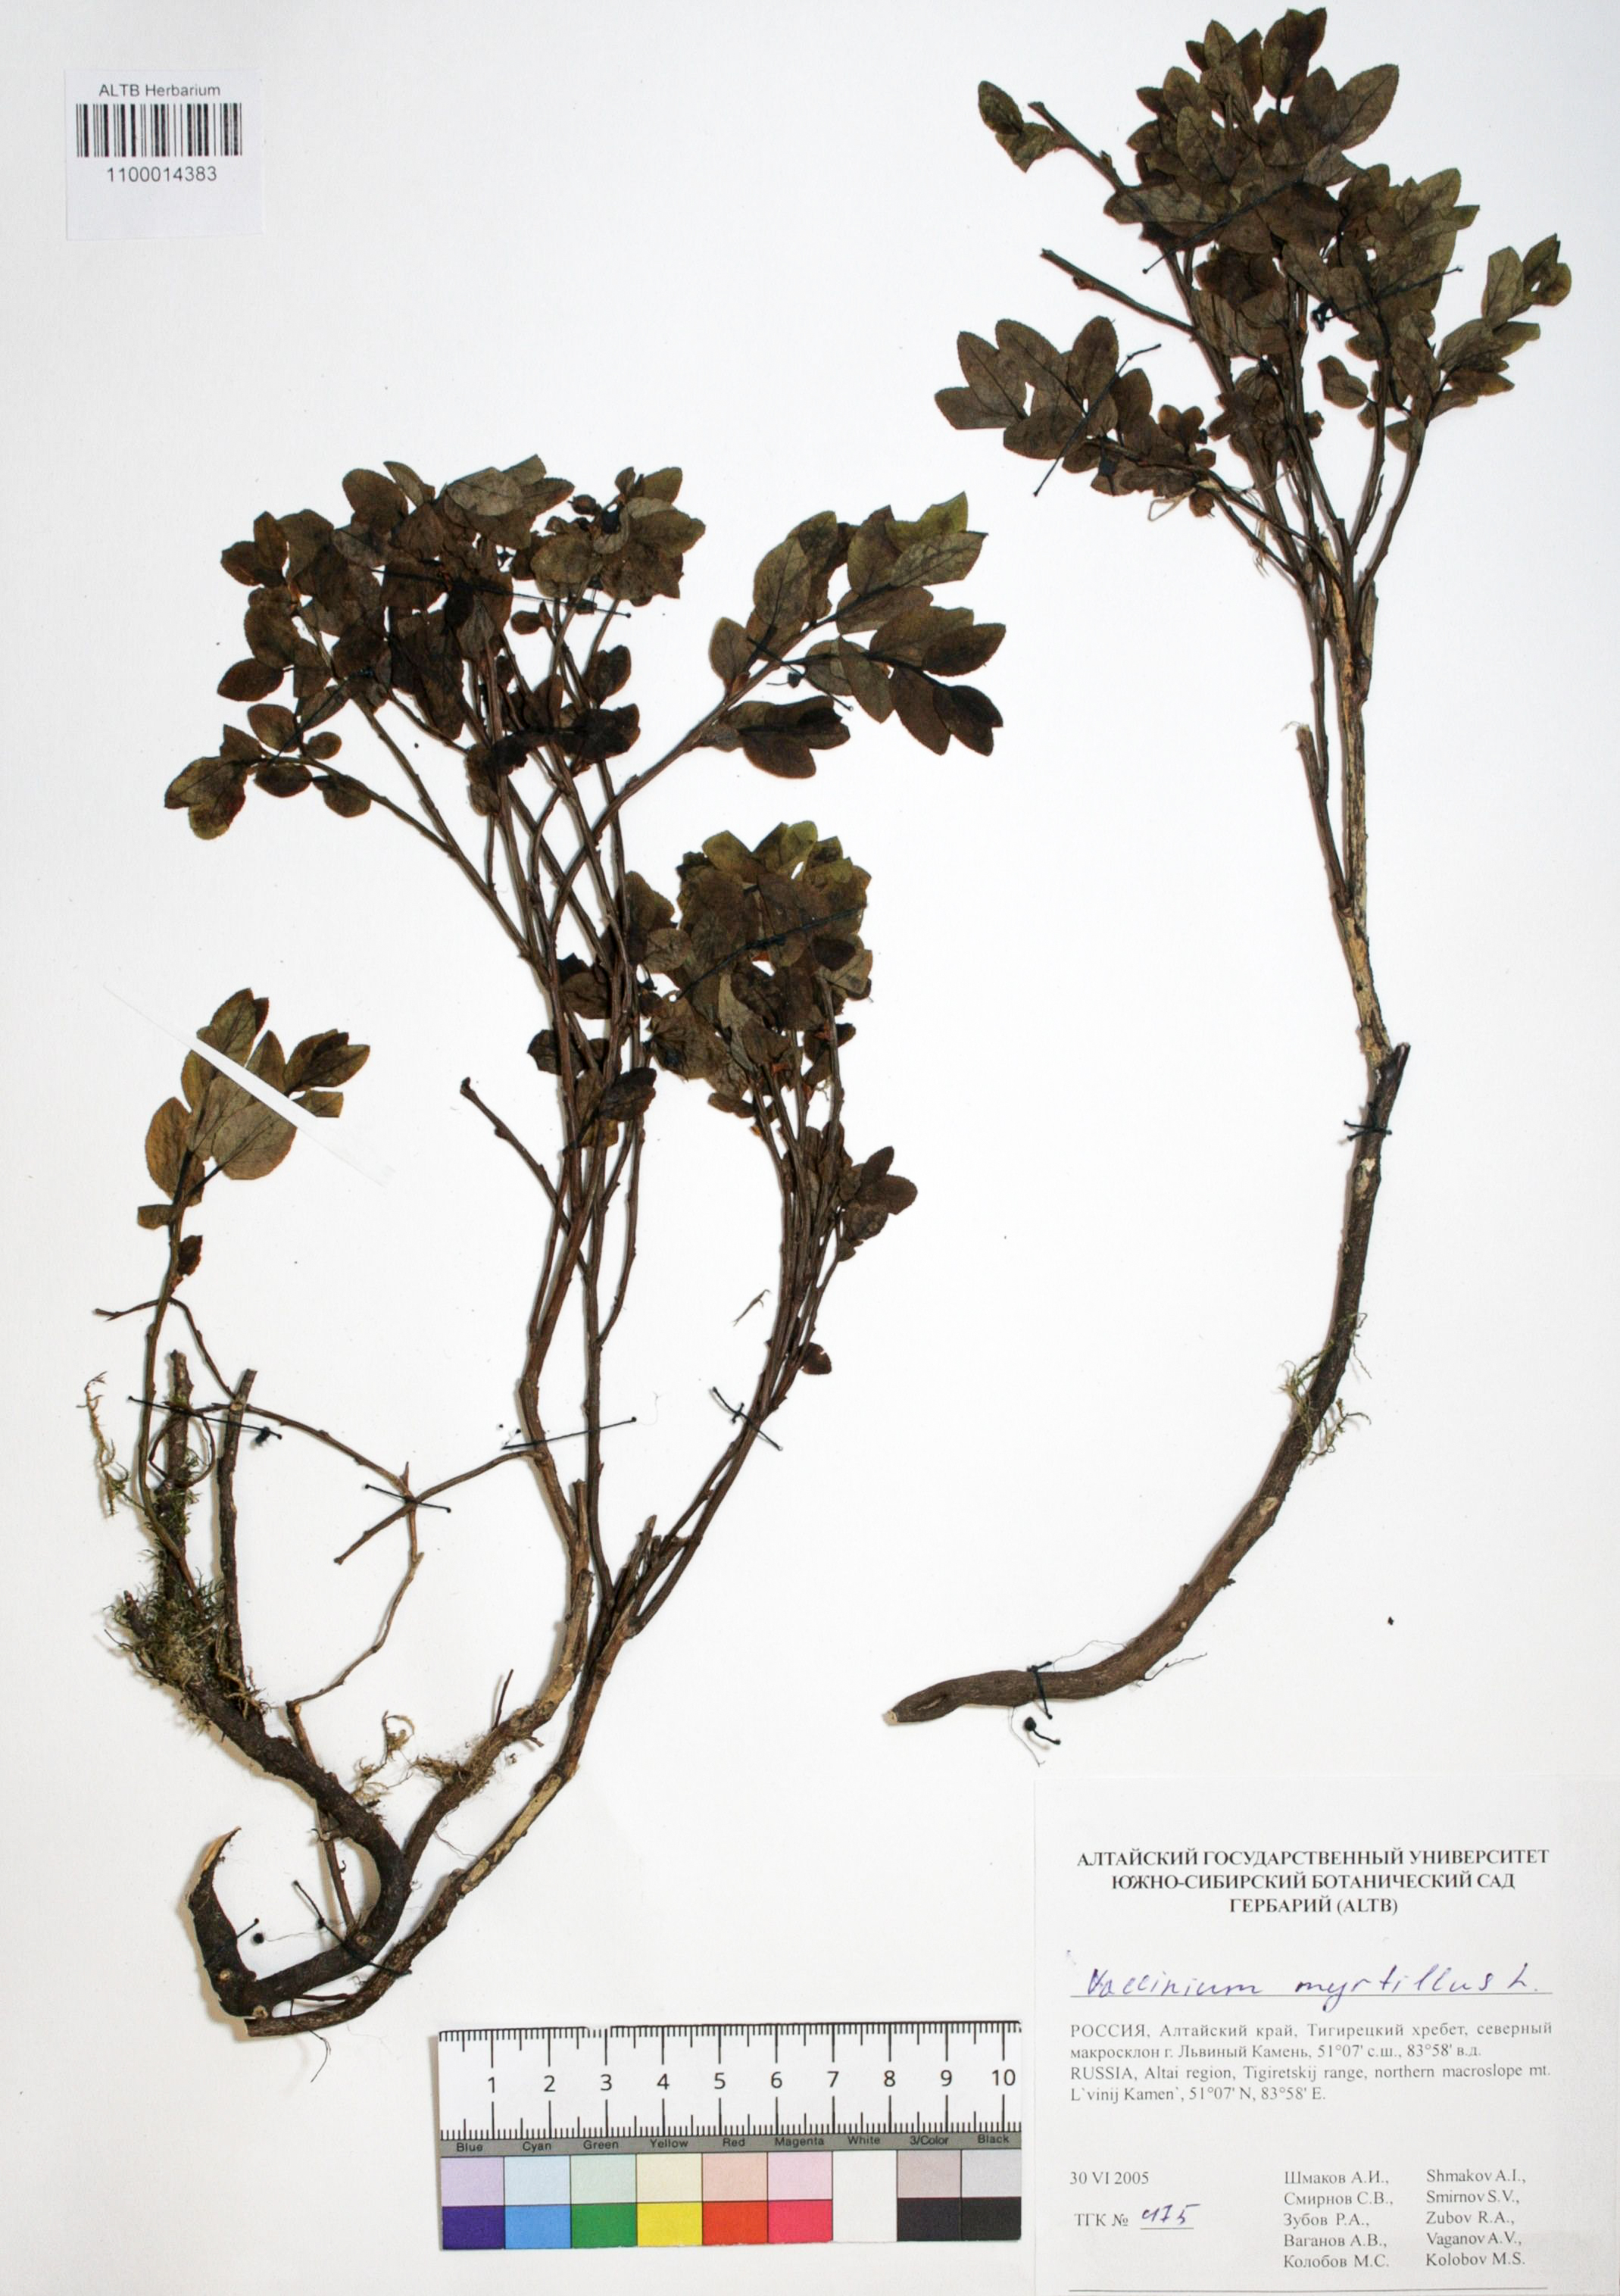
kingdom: Plantae
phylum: Tracheophyta
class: Magnoliopsida
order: Ericales
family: Ericaceae
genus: Vaccinium
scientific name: Vaccinium myrtillus
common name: Bilberry
